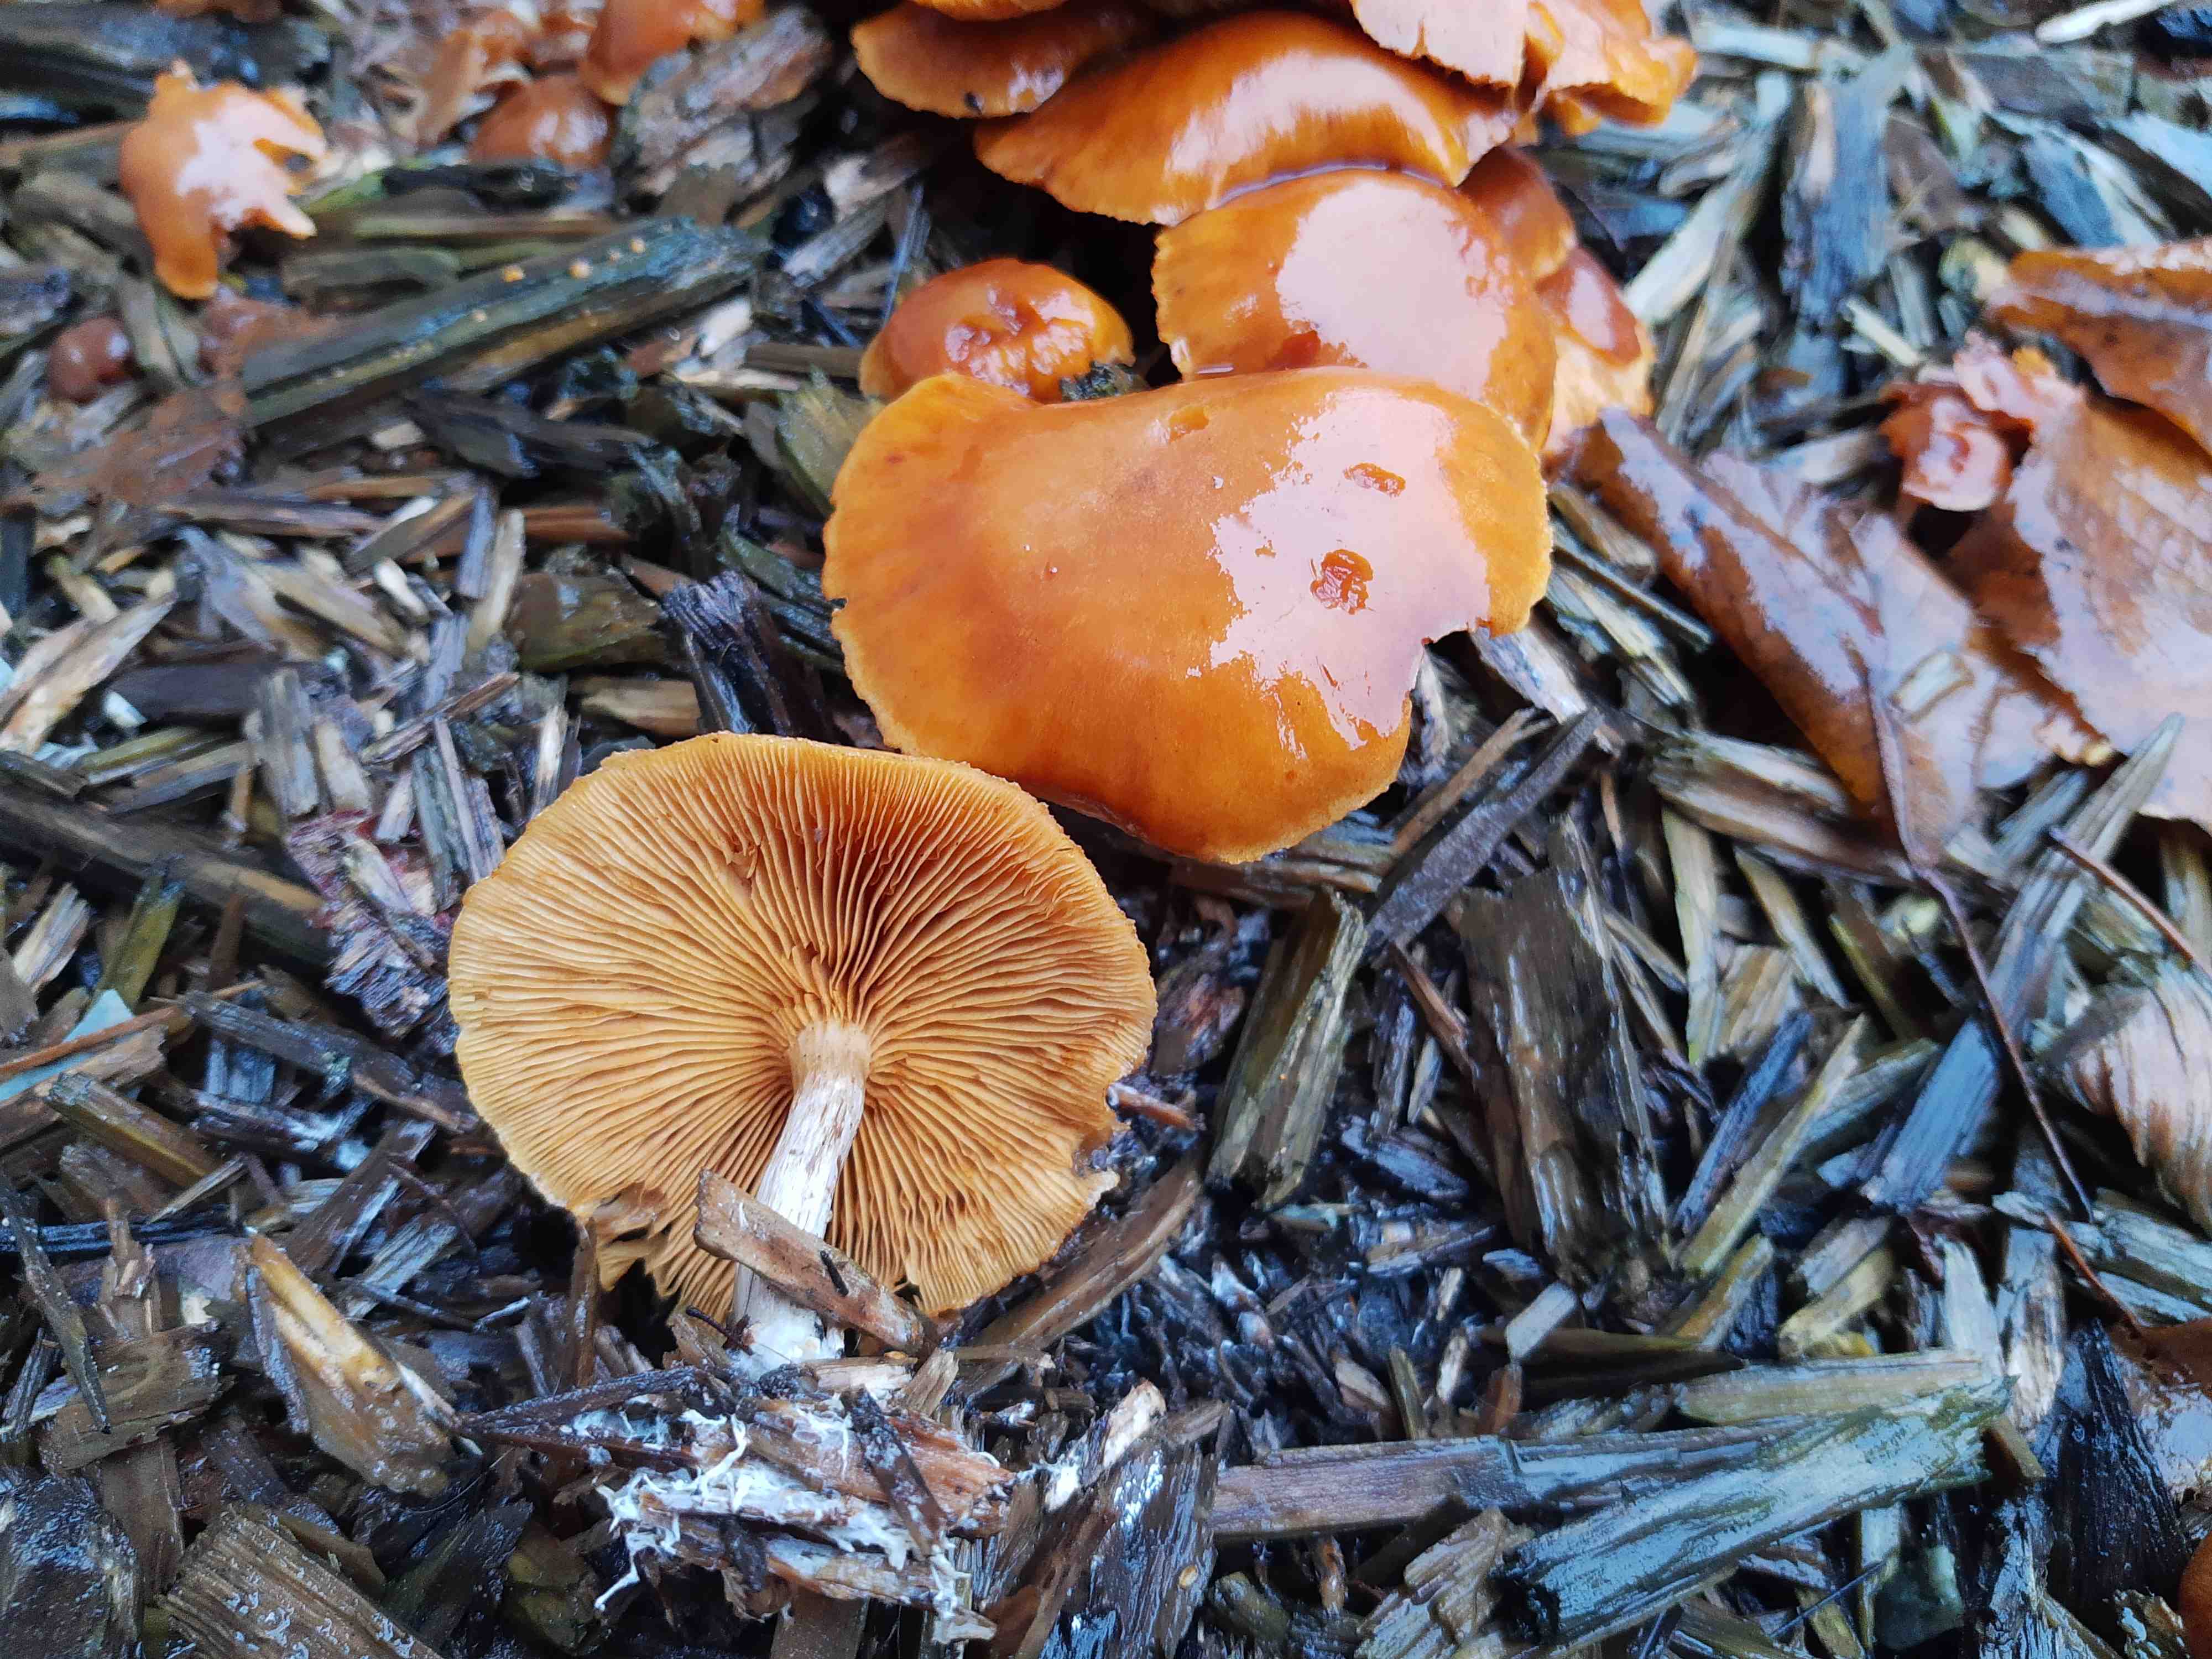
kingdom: Fungi
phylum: Basidiomycota
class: Agaricomycetes
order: Agaricales
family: Hymenogastraceae
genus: Gymnopilus
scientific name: Gymnopilus penetrans
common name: plettet flammehat
